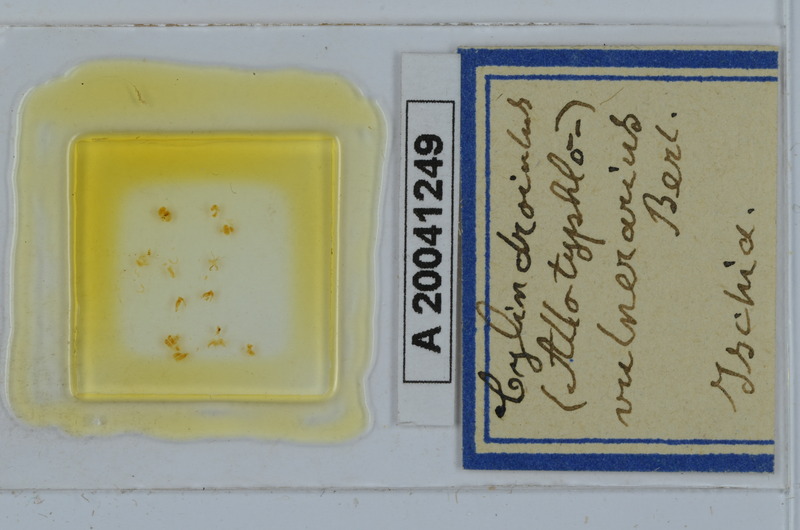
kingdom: Animalia
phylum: Arthropoda
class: Diplopoda
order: Julida
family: Julidae
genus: Cylindroiulus
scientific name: Cylindroiulus vulnerarius
